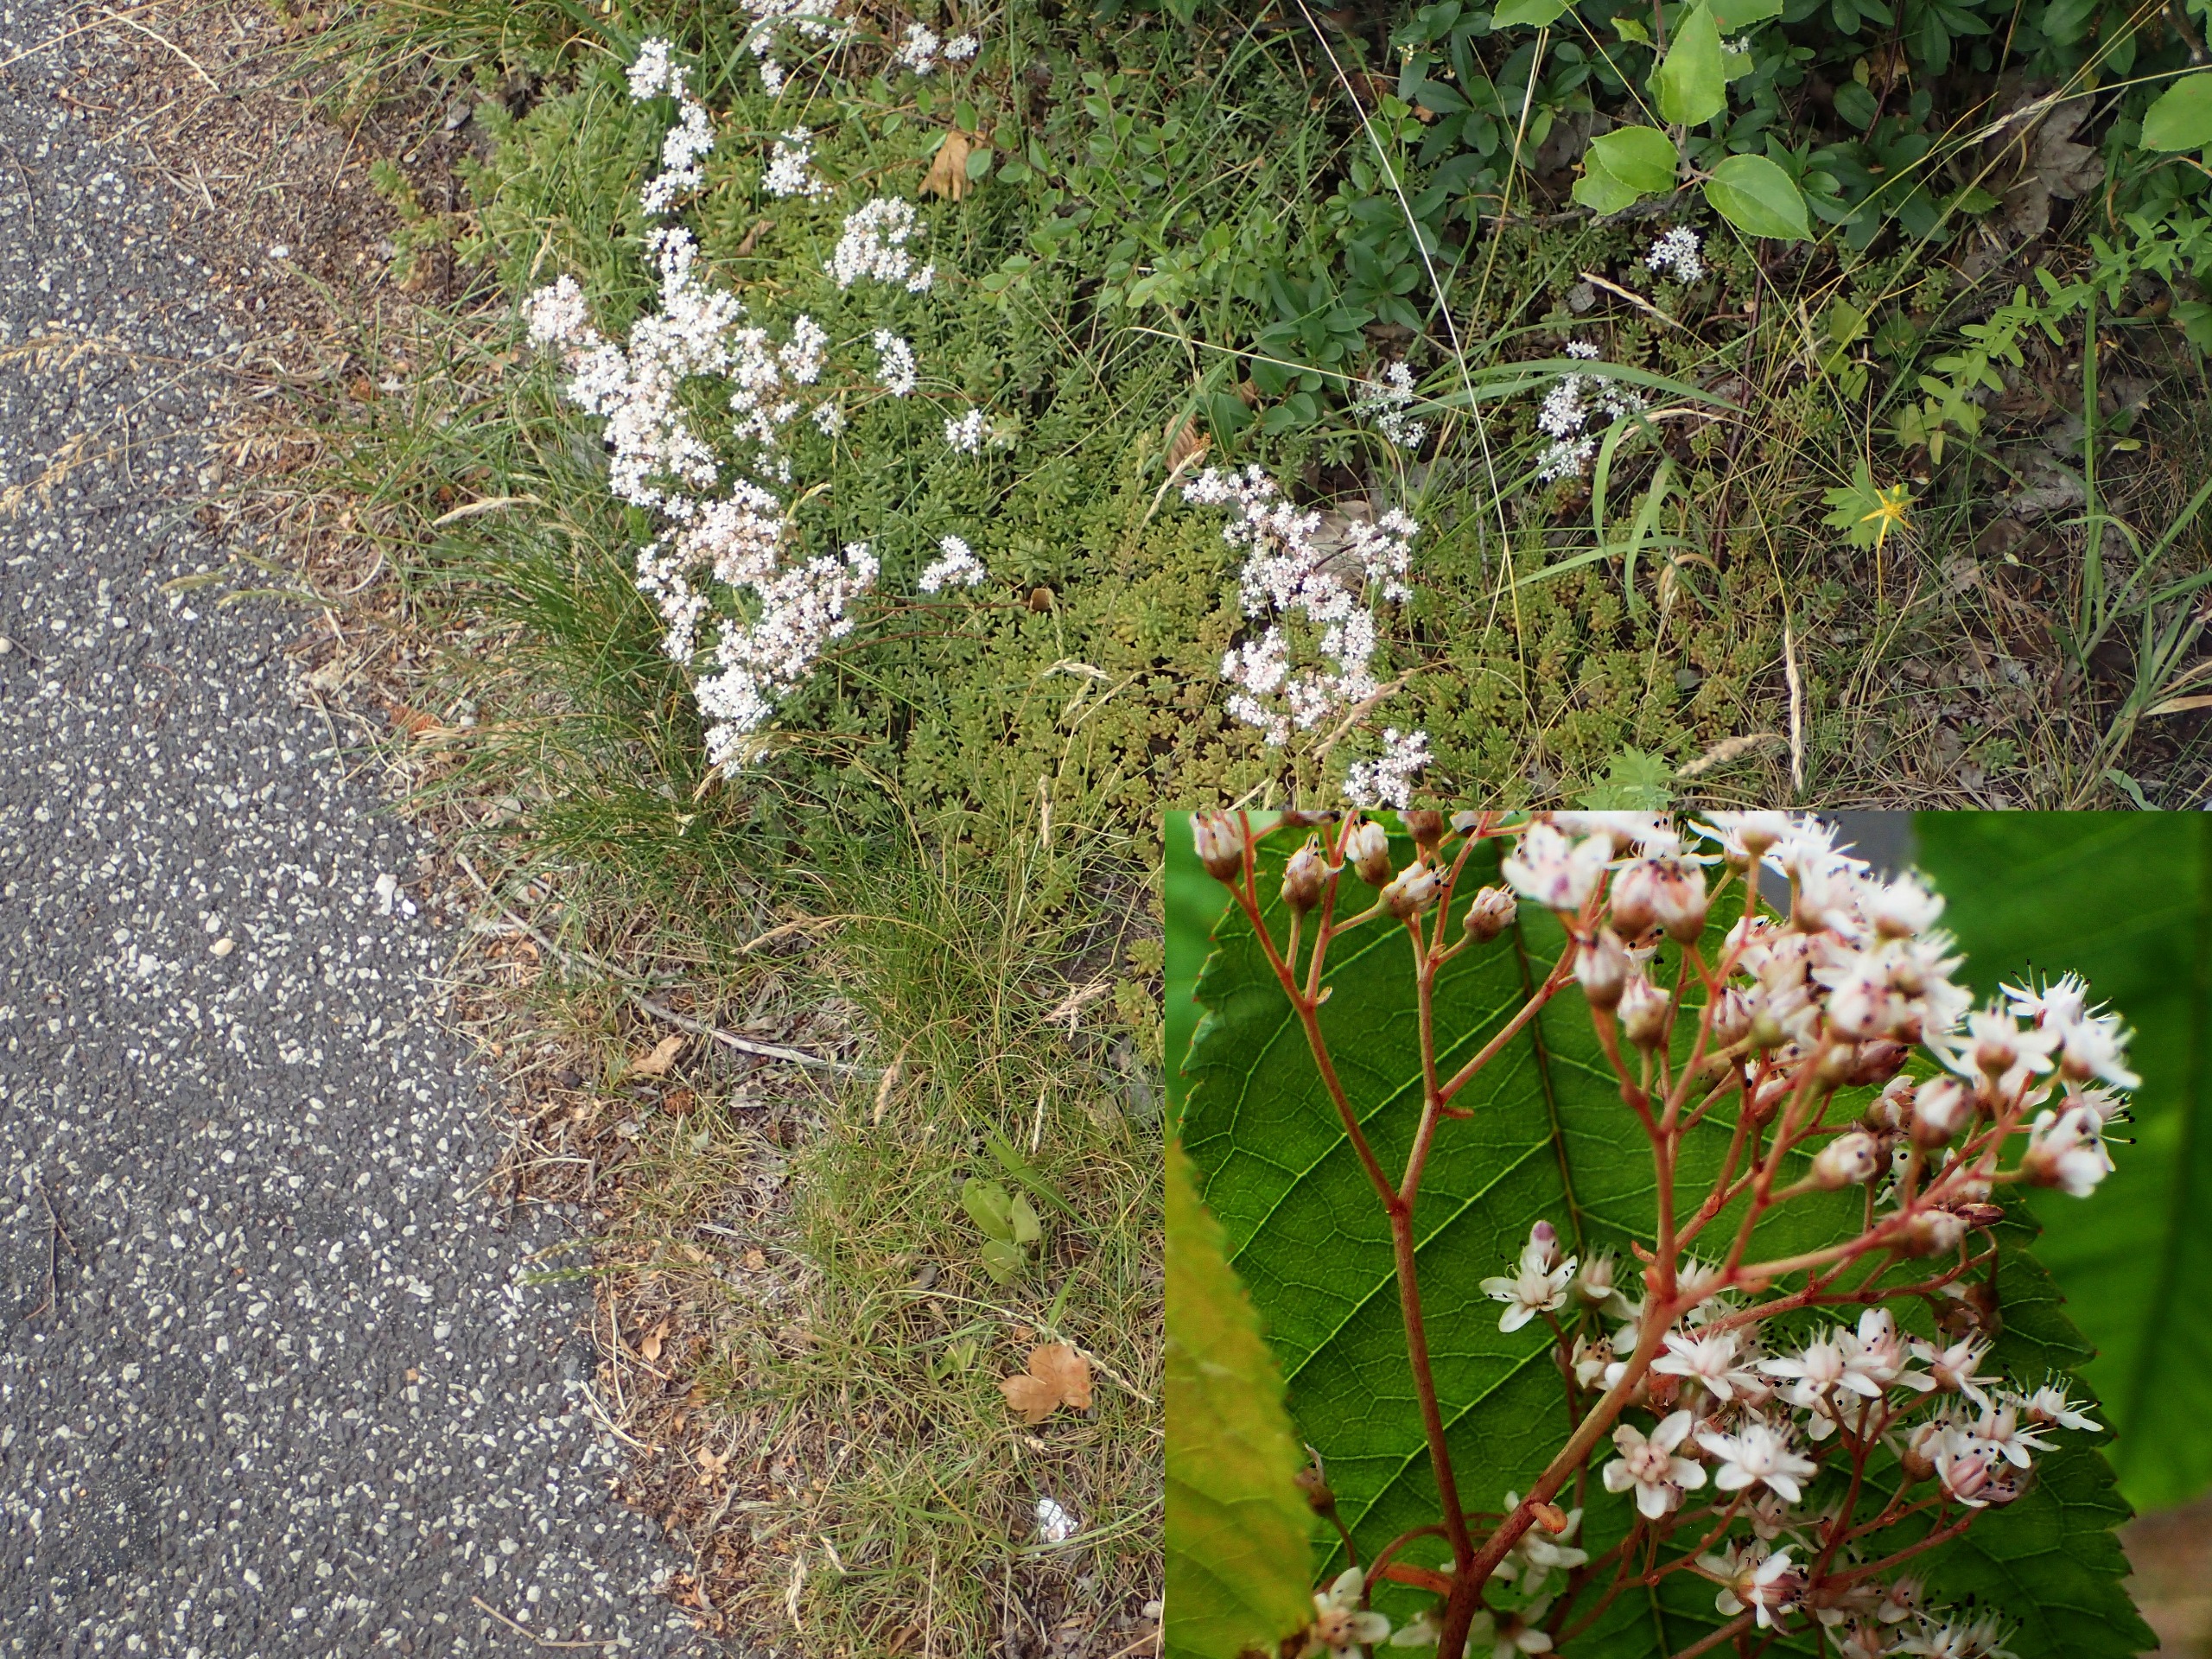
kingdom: Plantae
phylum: Tracheophyta
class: Magnoliopsida
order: Saxifragales
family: Crassulaceae
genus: Sedum
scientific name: Sedum album
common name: Hvid stenurt
